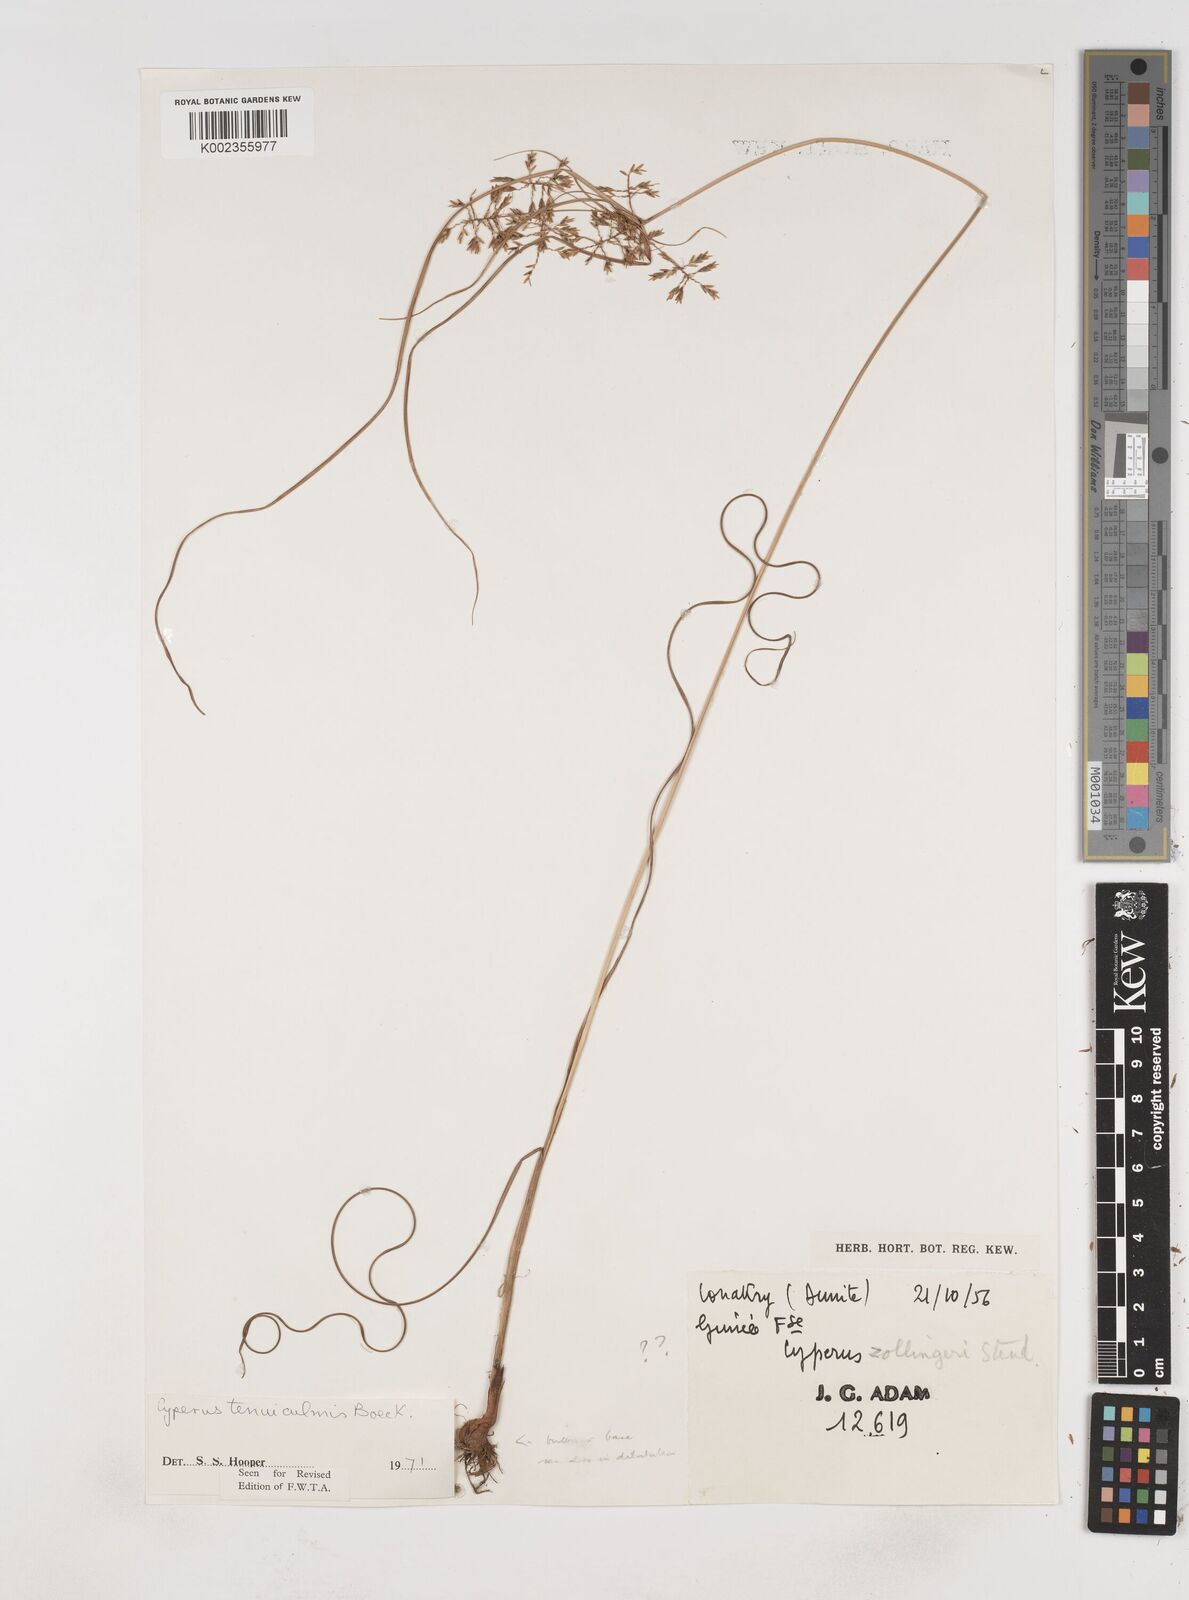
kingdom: Plantae
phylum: Tracheophyta
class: Liliopsida
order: Poales
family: Cyperaceae
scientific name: Cyperaceae
